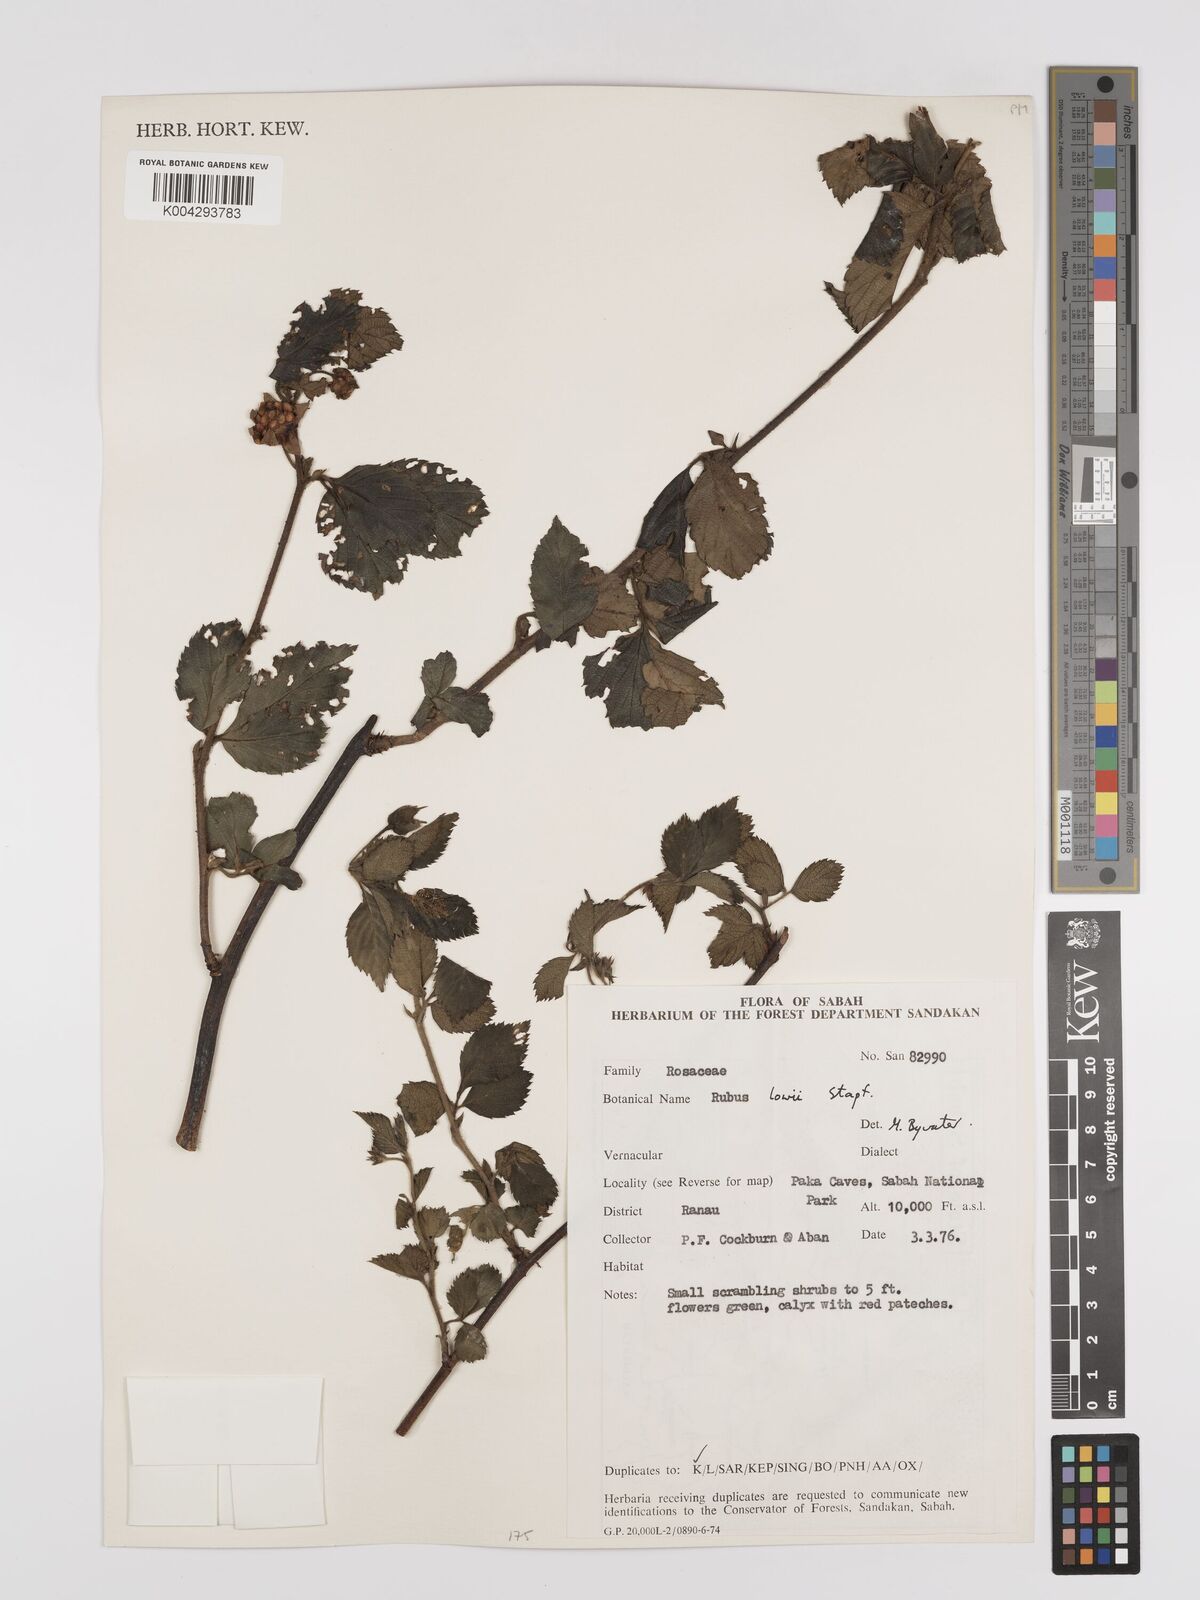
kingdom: Plantae
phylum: Tracheophyta
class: Magnoliopsida
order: Rosales
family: Rosaceae
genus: Rubus
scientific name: Rubus lowii
